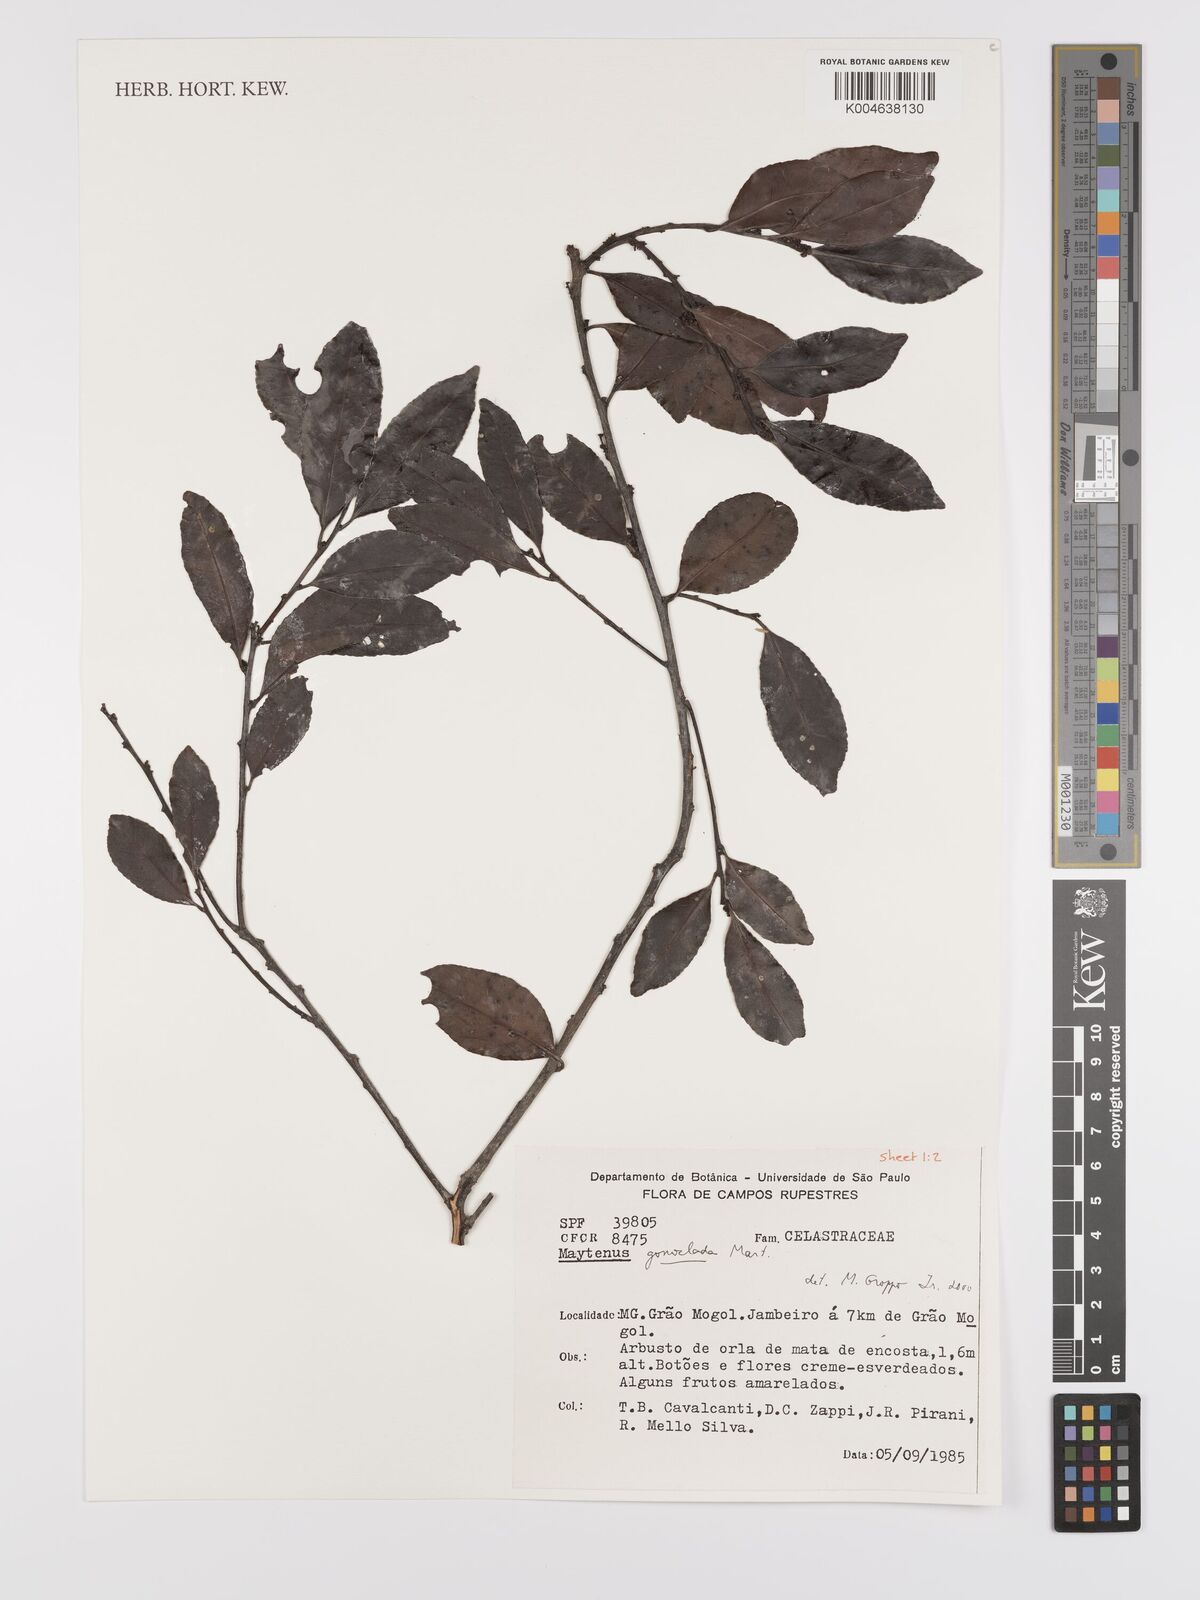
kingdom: Plantae
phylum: Tracheophyta
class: Magnoliopsida
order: Celastrales
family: Celastraceae
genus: Monteverdia
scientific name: Monteverdia gonoclada
